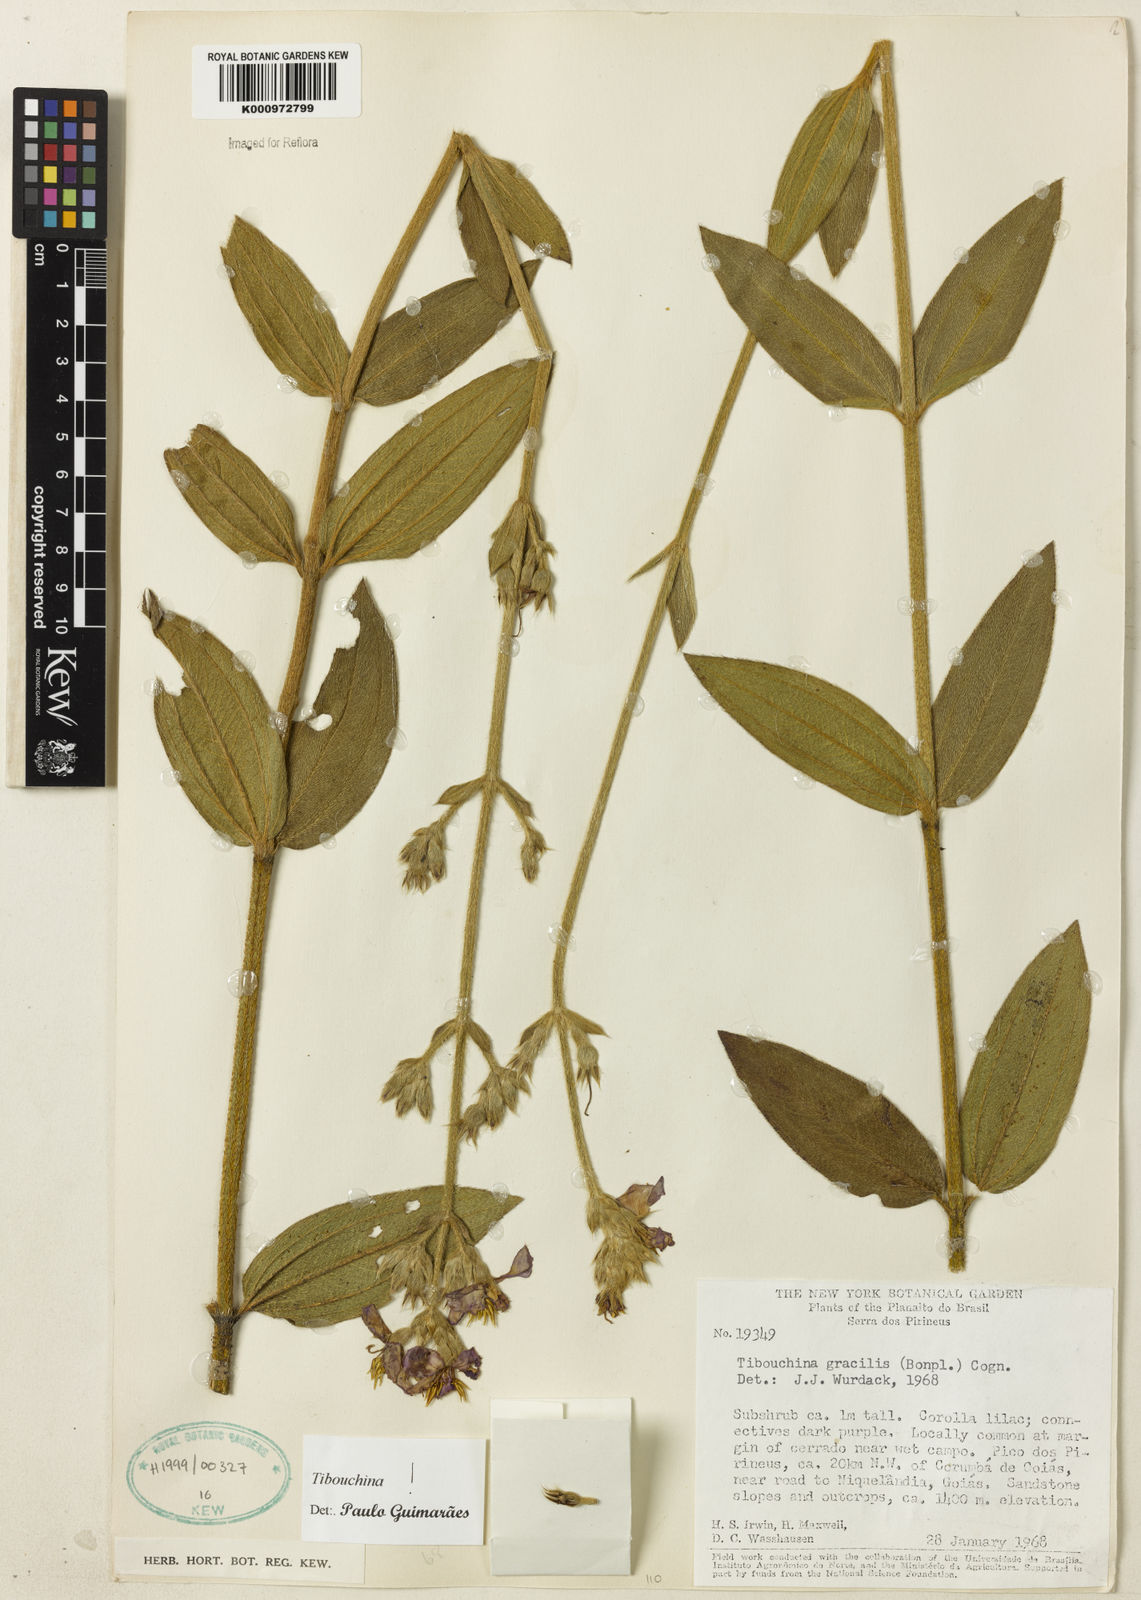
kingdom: Plantae
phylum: Tracheophyta
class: Magnoliopsida
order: Myrtales
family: Melastomataceae
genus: Chaetogastra
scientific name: Chaetogastra gracilis
